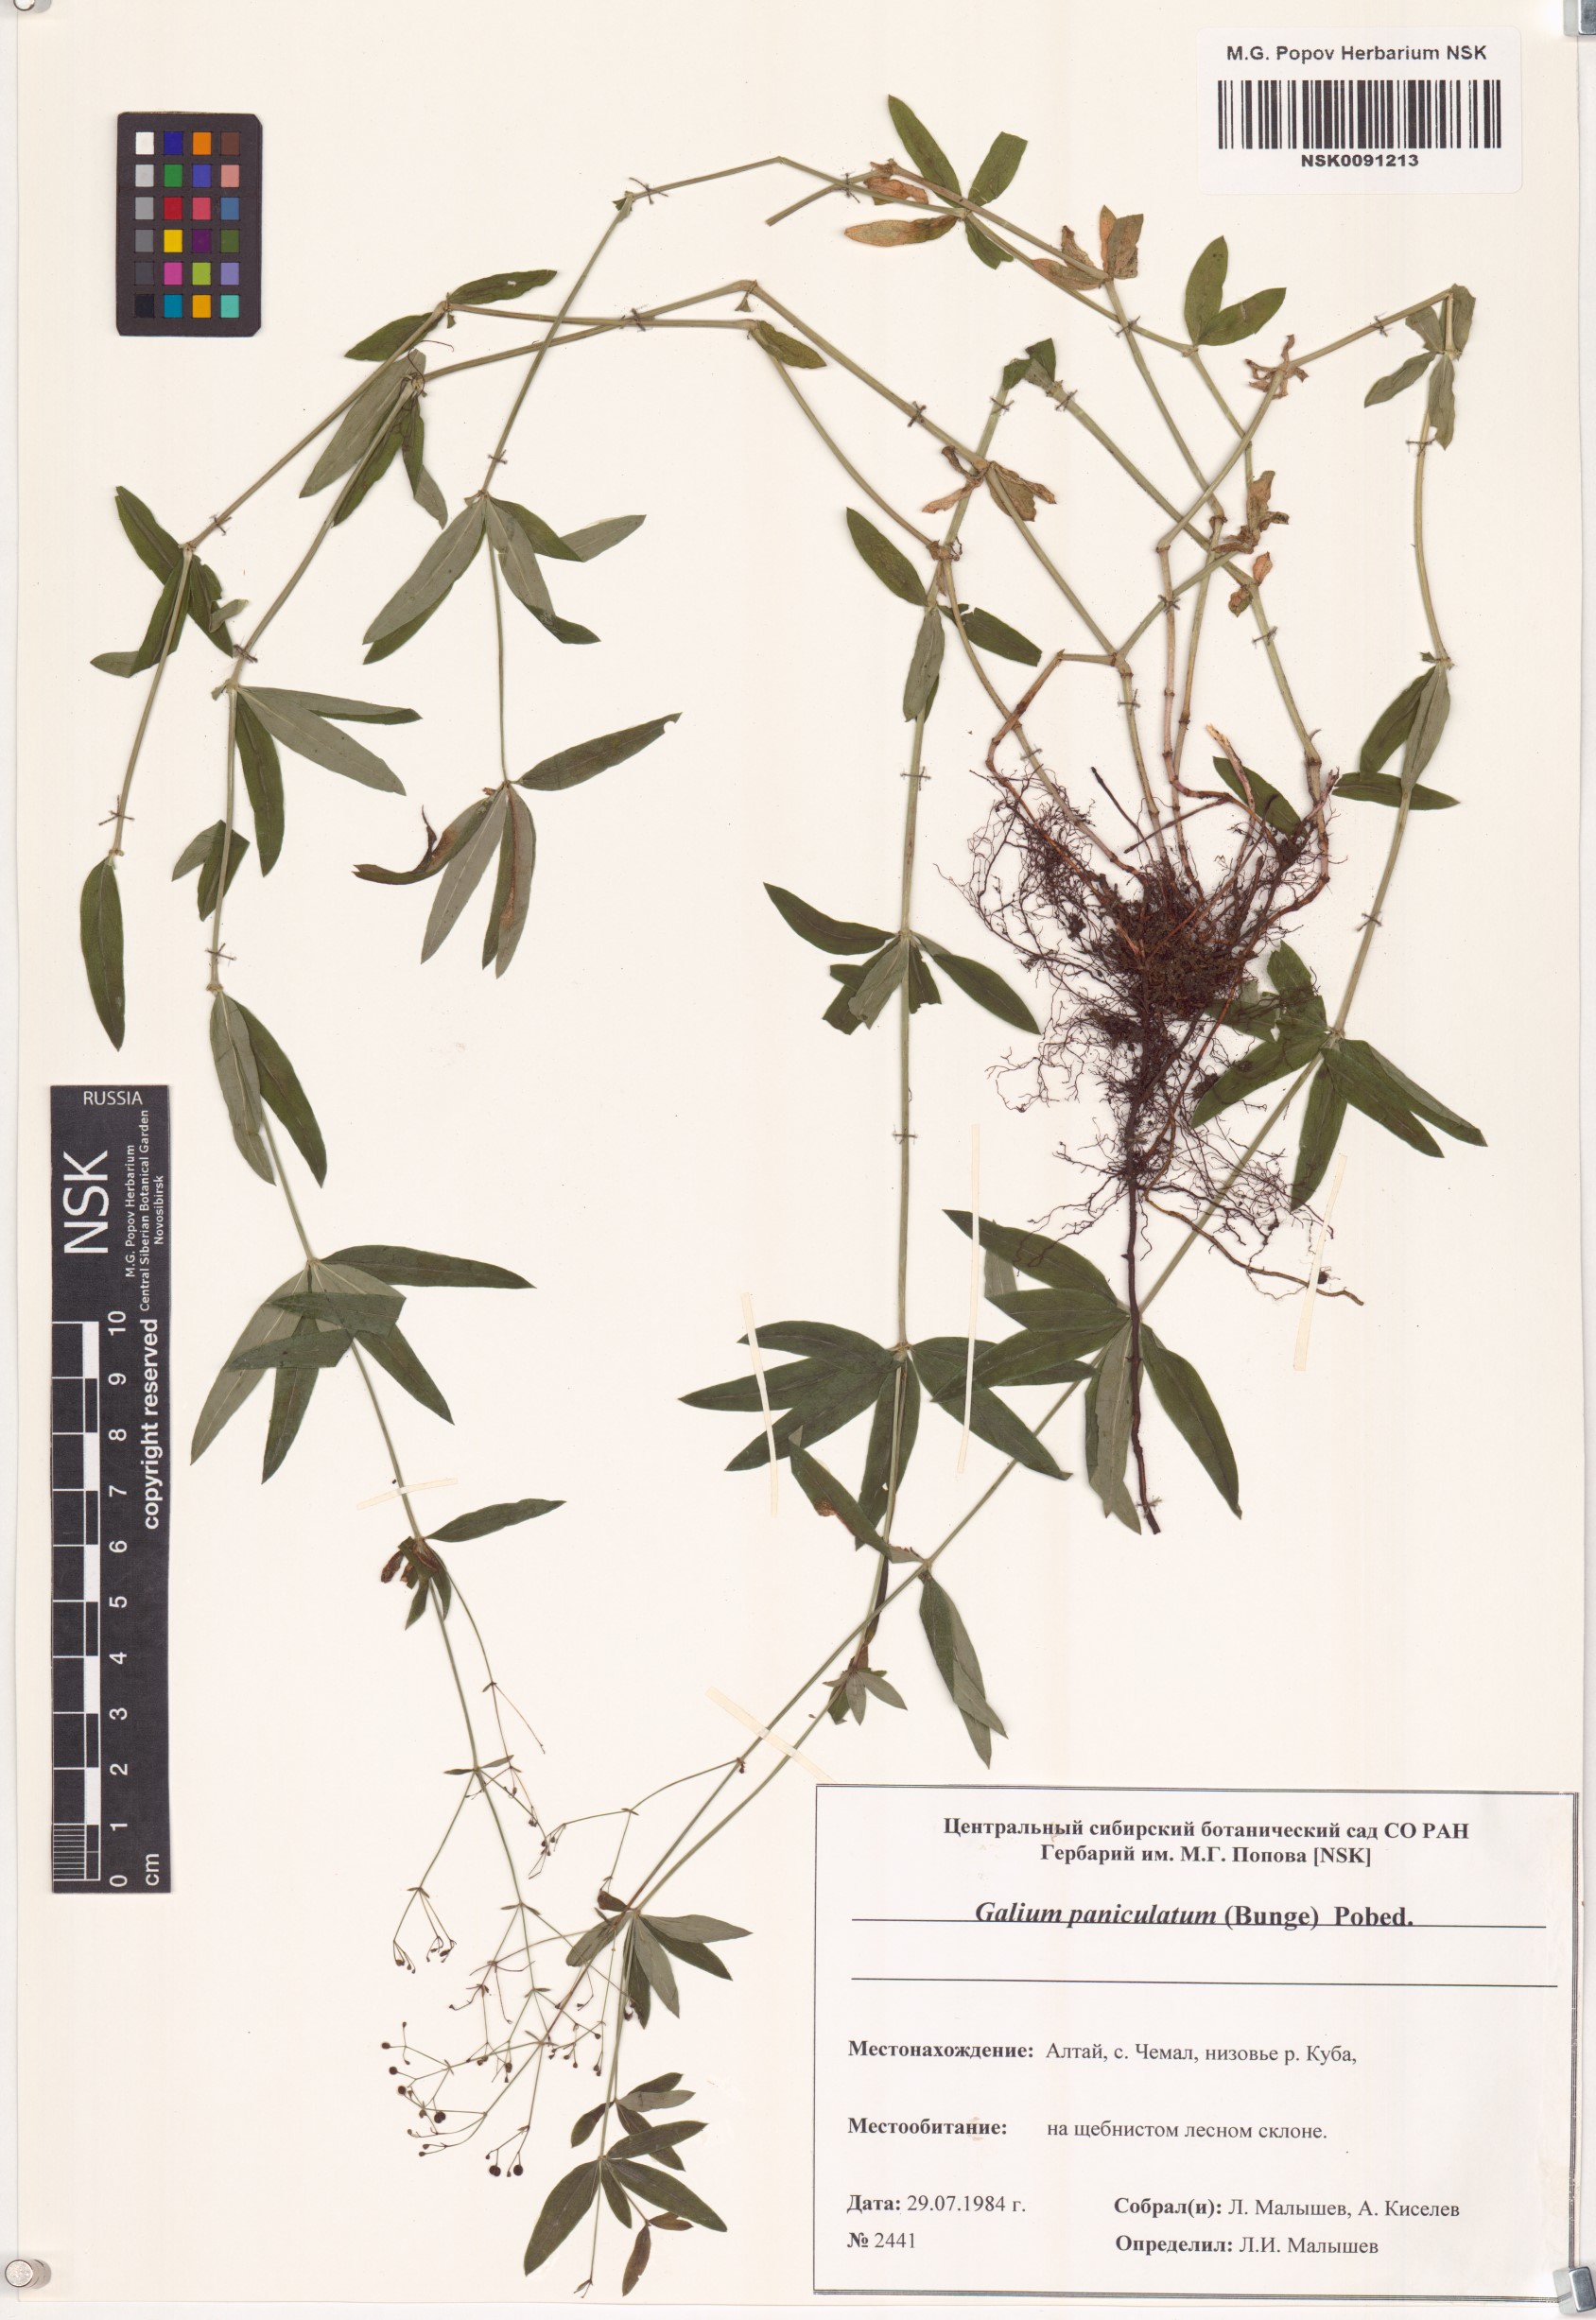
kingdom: Plantae
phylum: Tracheophyta
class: Magnoliopsida
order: Gentianales
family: Rubiaceae
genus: Galium
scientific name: Galium paniculatum
